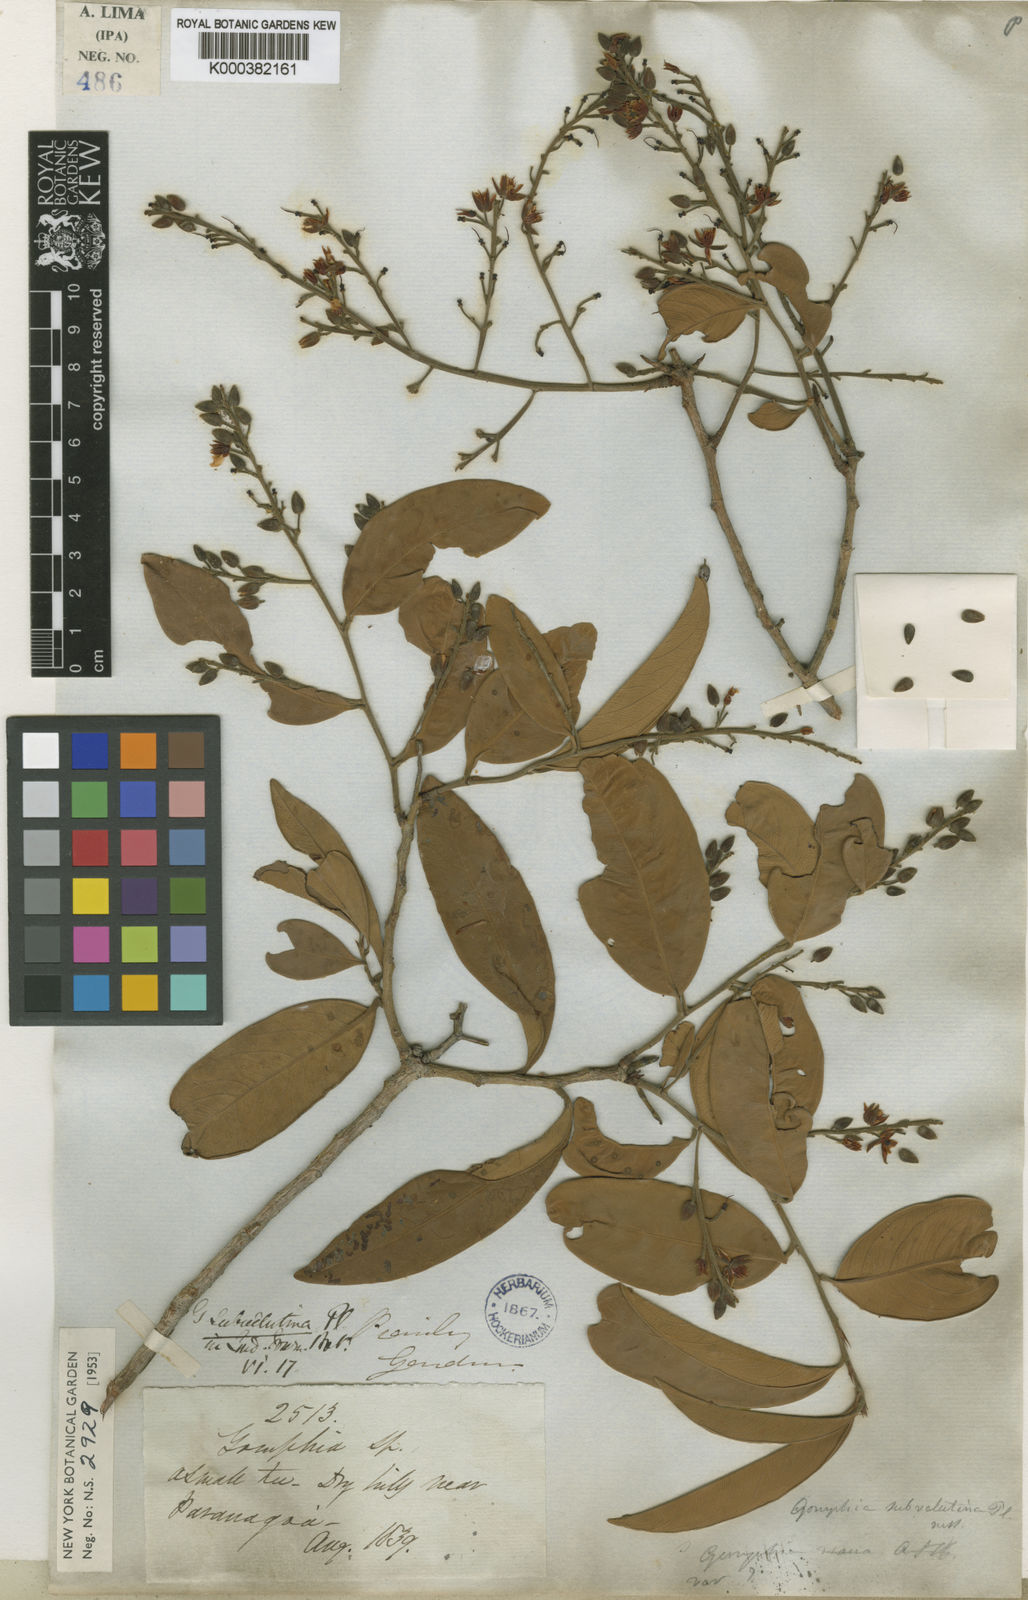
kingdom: Plantae
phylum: Tracheophyta
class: Magnoliopsida
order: Malpighiales
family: Ochnaceae
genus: Ouratea
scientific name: Ouratea oleifolia
